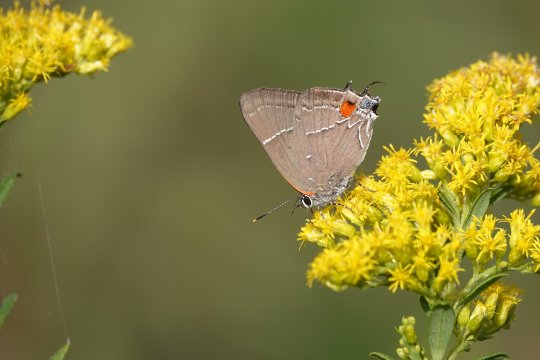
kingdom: Animalia
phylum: Arthropoda
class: Insecta
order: Lepidoptera
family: Lycaenidae
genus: Parrhasius
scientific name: Parrhasius m-album
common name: White-m Hairstreak
